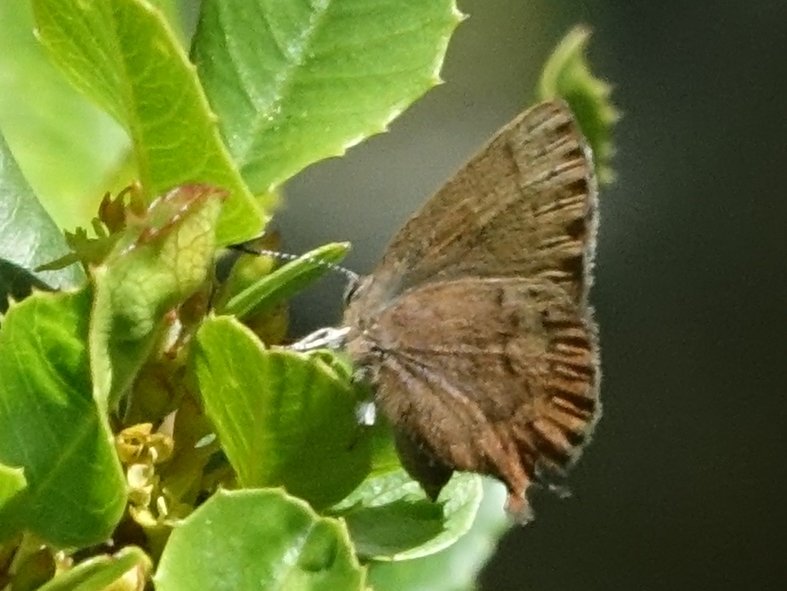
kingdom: Animalia
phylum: Arthropoda
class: Insecta
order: Lepidoptera
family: Lycaenidae
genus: Incisalia
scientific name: Incisalia irioides
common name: Brown Elfin
